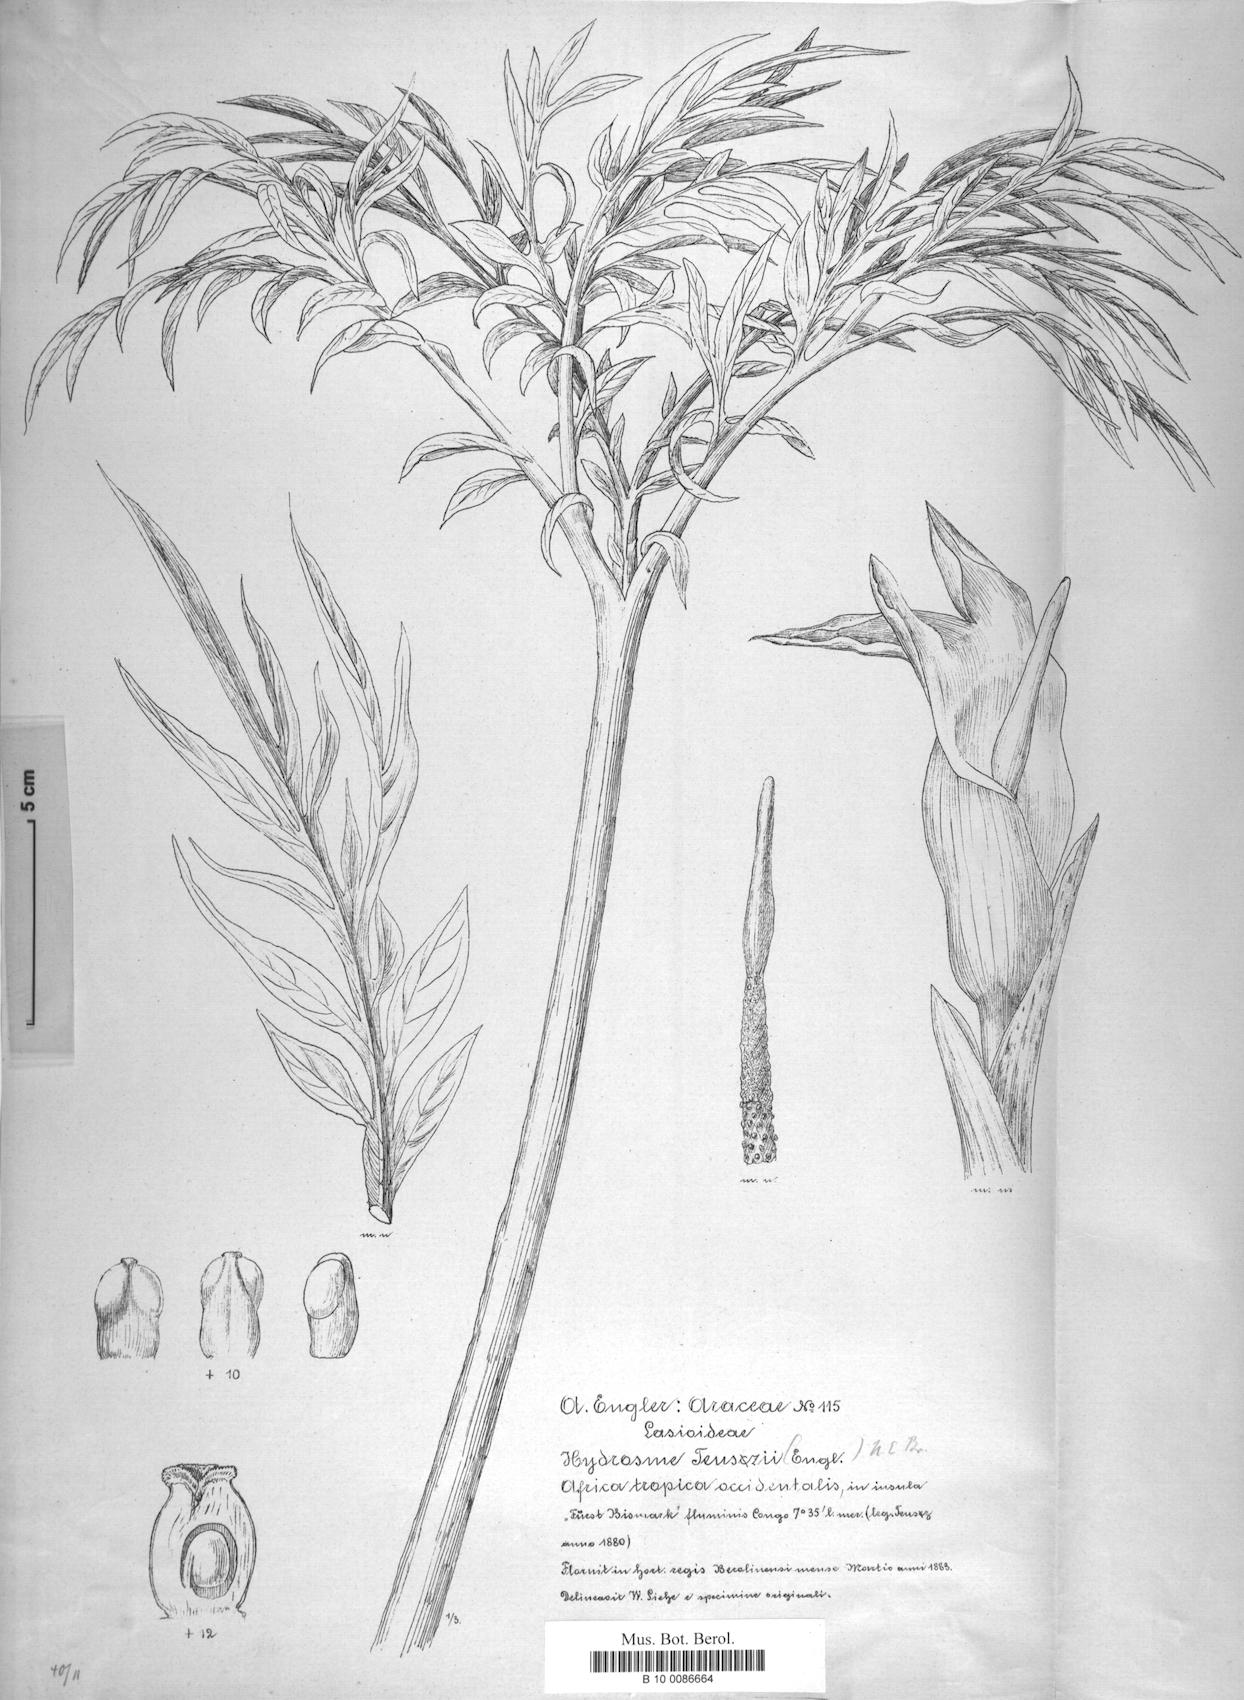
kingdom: Plantae
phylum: Tracheophyta
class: Liliopsida
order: Alismatales
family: Araceae
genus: Amorphophallus
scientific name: Amorphophallus teuszii
